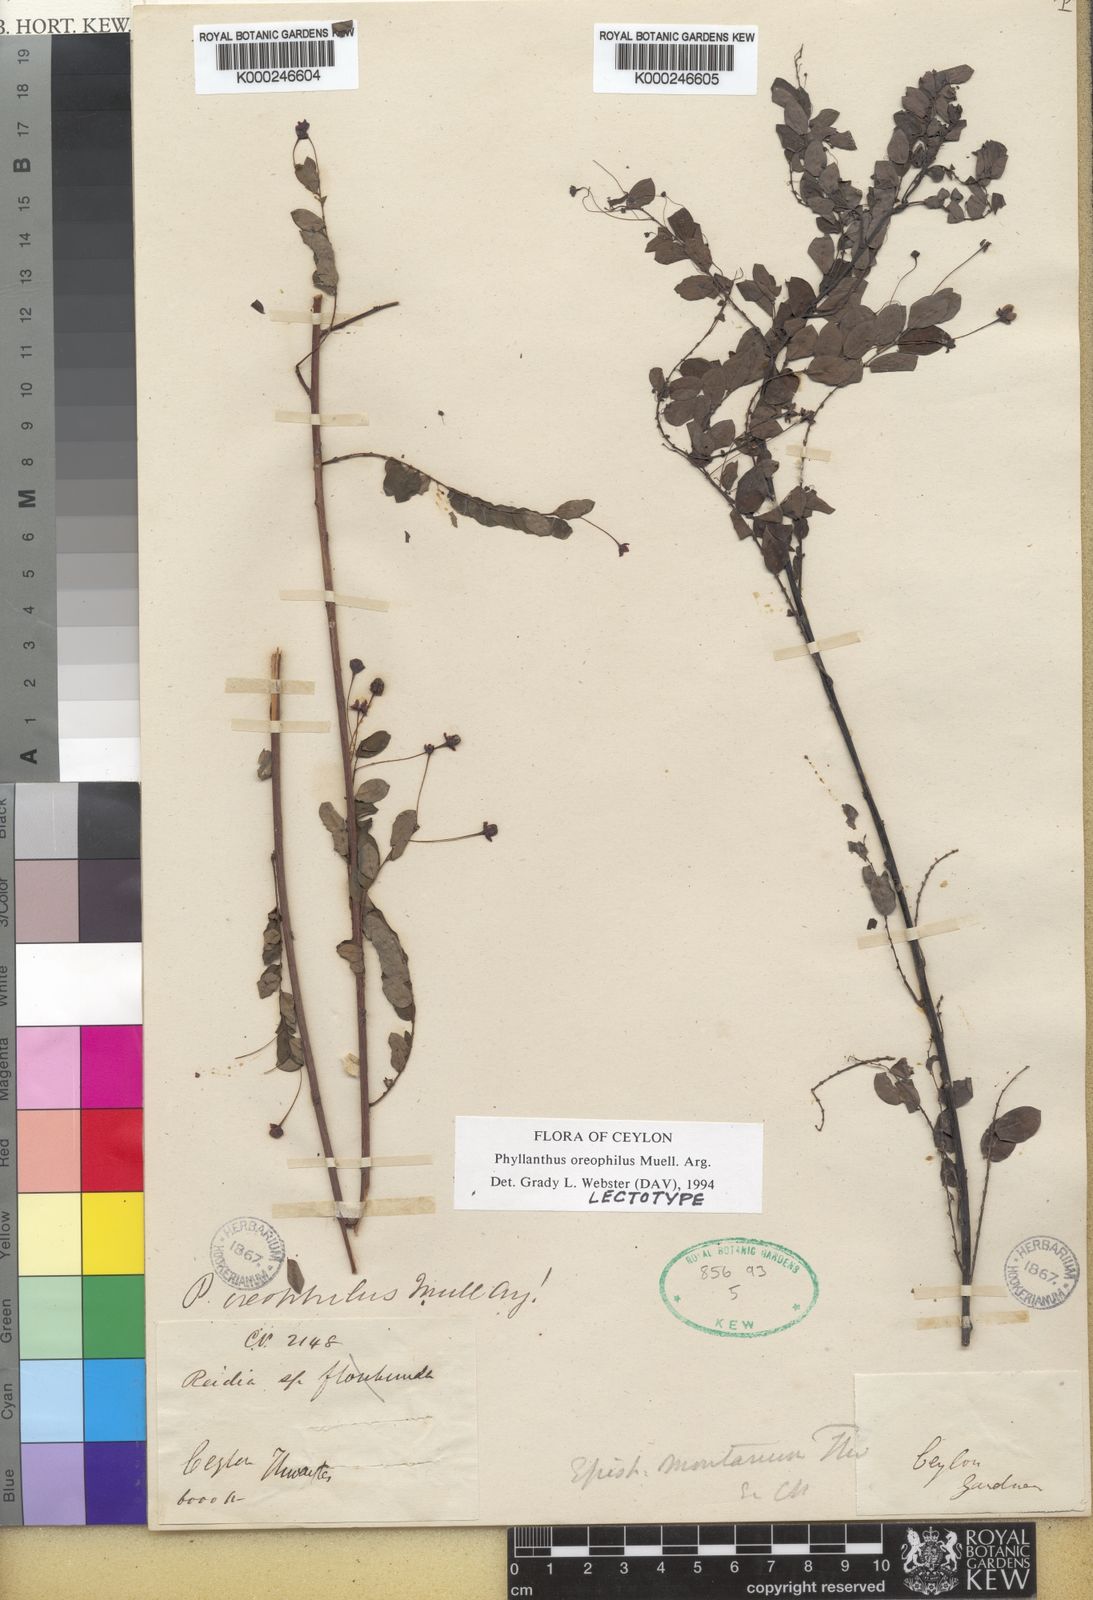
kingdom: Plantae
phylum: Tracheophyta
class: Magnoliopsida
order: Malpighiales
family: Phyllanthaceae
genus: Phyllanthus
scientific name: Phyllanthus
